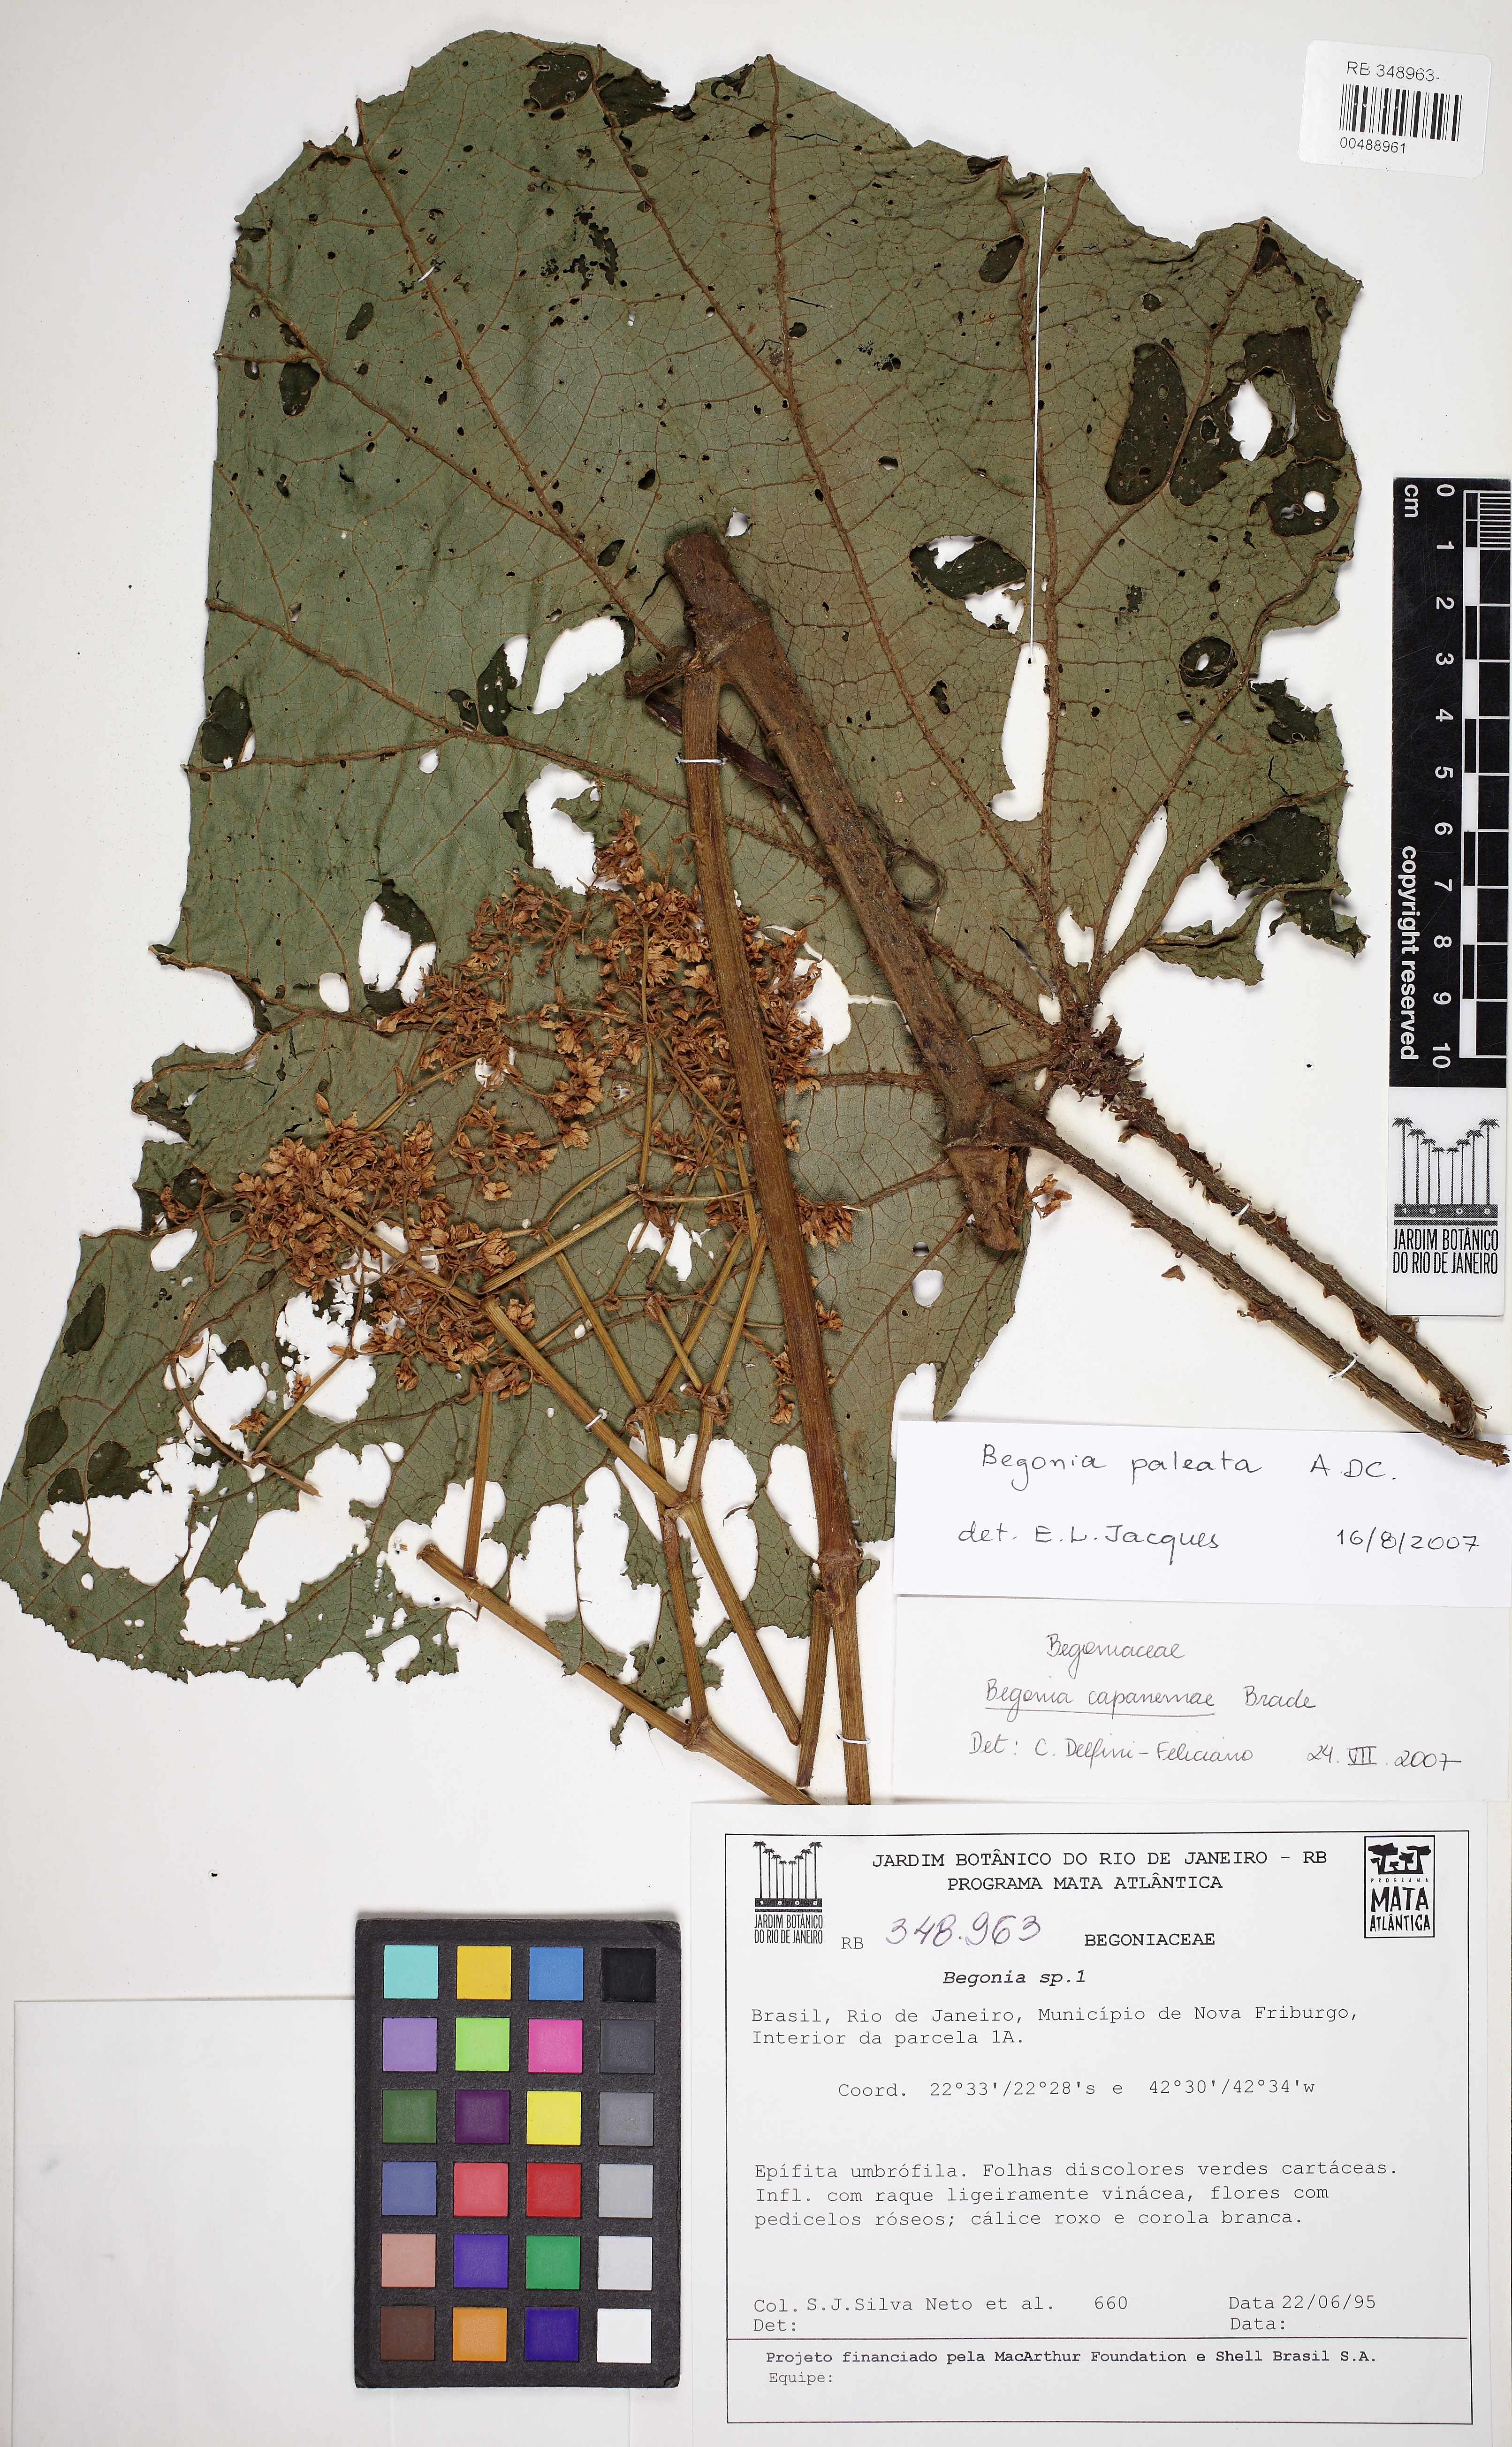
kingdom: Plantae
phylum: Tracheophyta
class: Magnoliopsida
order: Cucurbitales
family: Begoniaceae
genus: Begonia
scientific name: Begonia paleata
